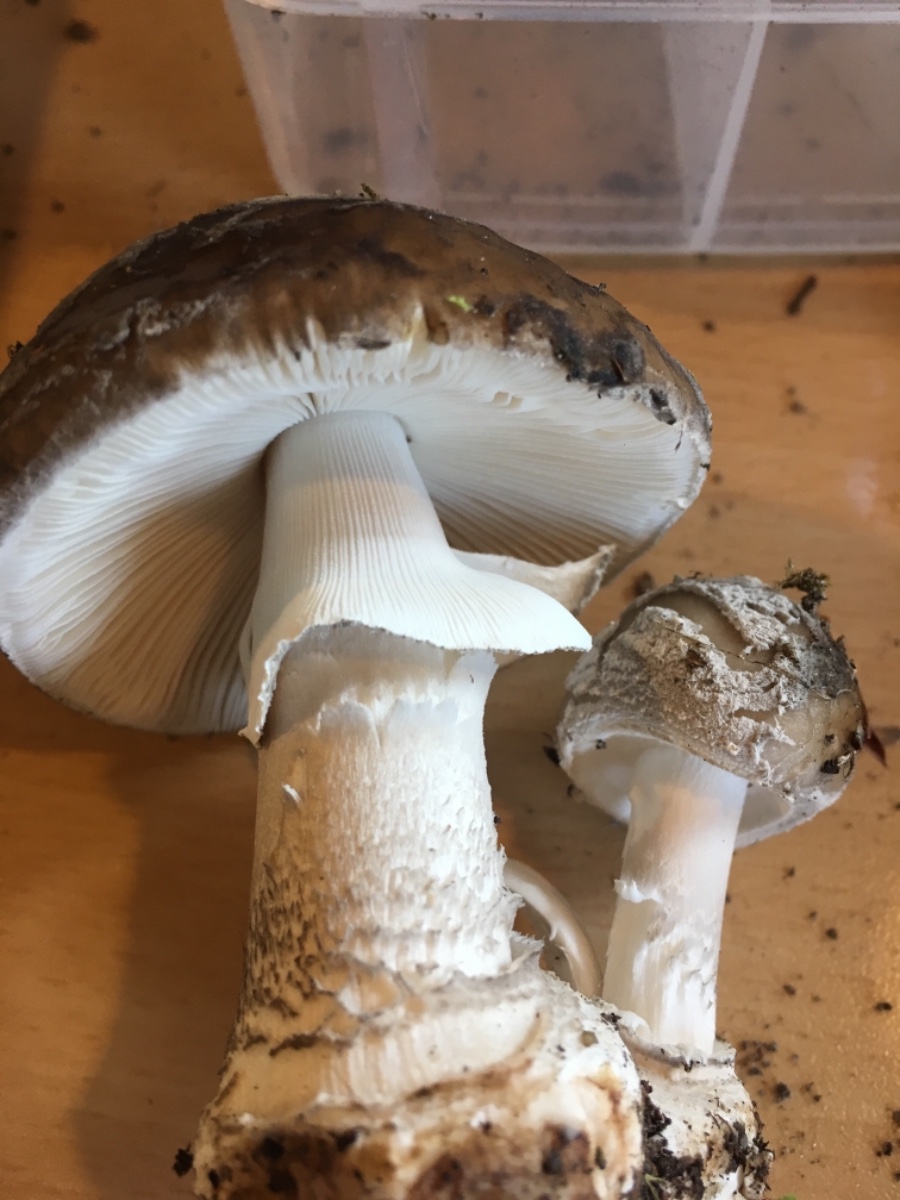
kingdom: Fungi
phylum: Basidiomycota
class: Agaricomycetes
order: Agaricales
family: Amanitaceae
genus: Amanita
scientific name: Amanita porphyria
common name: porfyr-fluesvamp
